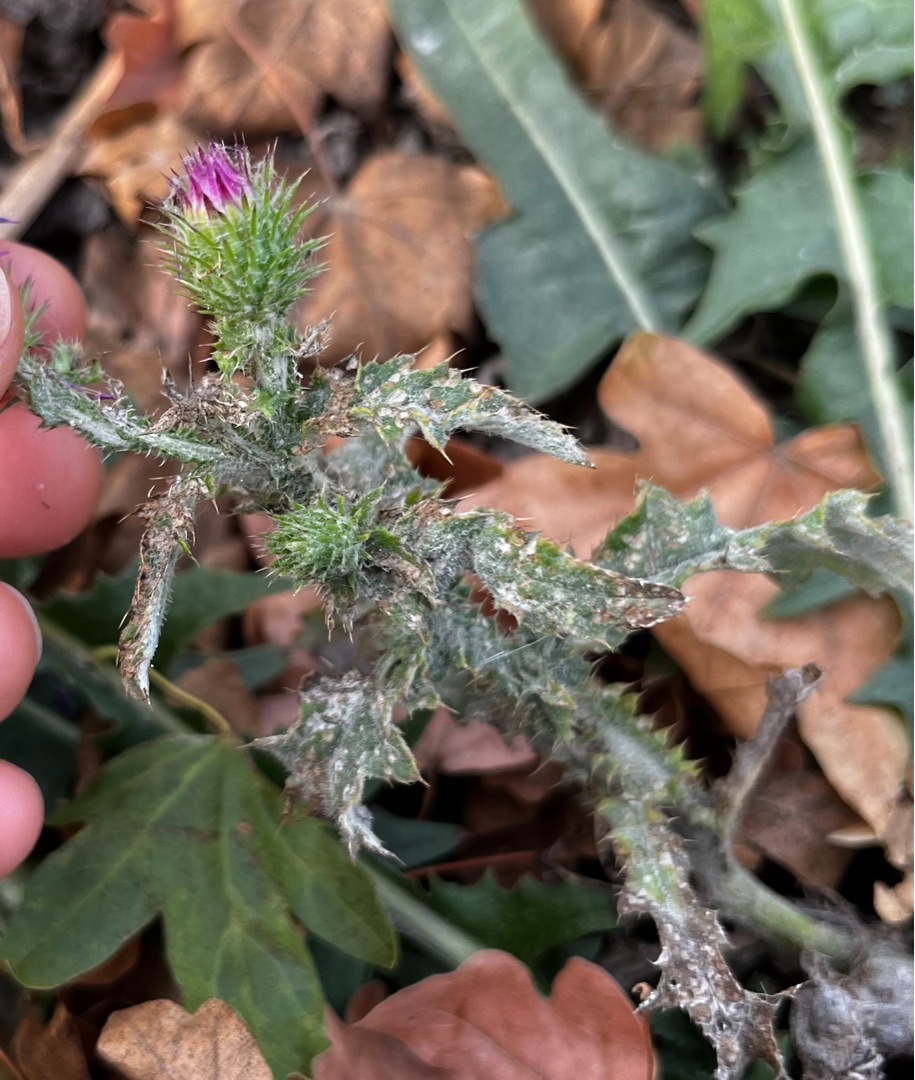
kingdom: Plantae
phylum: Tracheophyta
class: Magnoliopsida
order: Asterales
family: Asteraceae
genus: Carduus
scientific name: Carduus crispus
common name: Kruset tidsel
